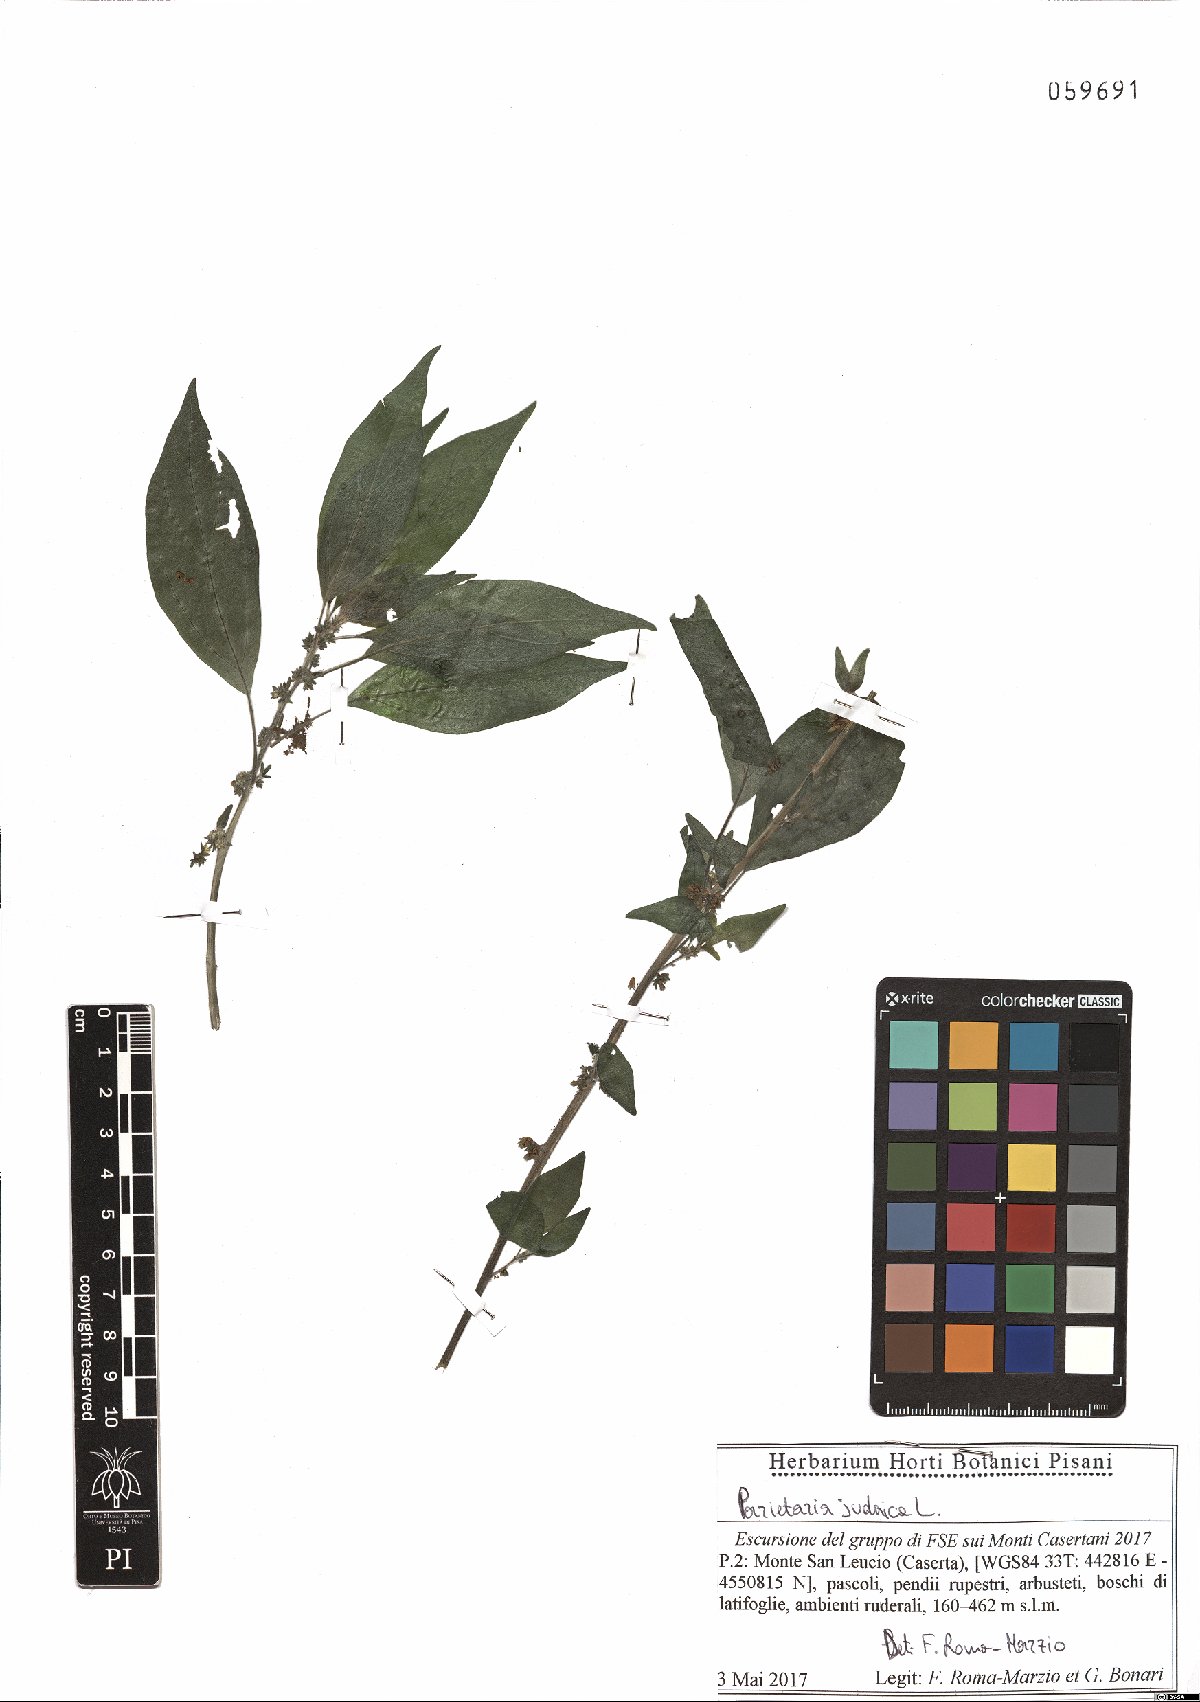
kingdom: Plantae
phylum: Tracheophyta
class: Magnoliopsida
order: Rosales
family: Urticaceae
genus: Parietaria
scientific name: Parietaria judaica
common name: Pellitory-of-the-wall
